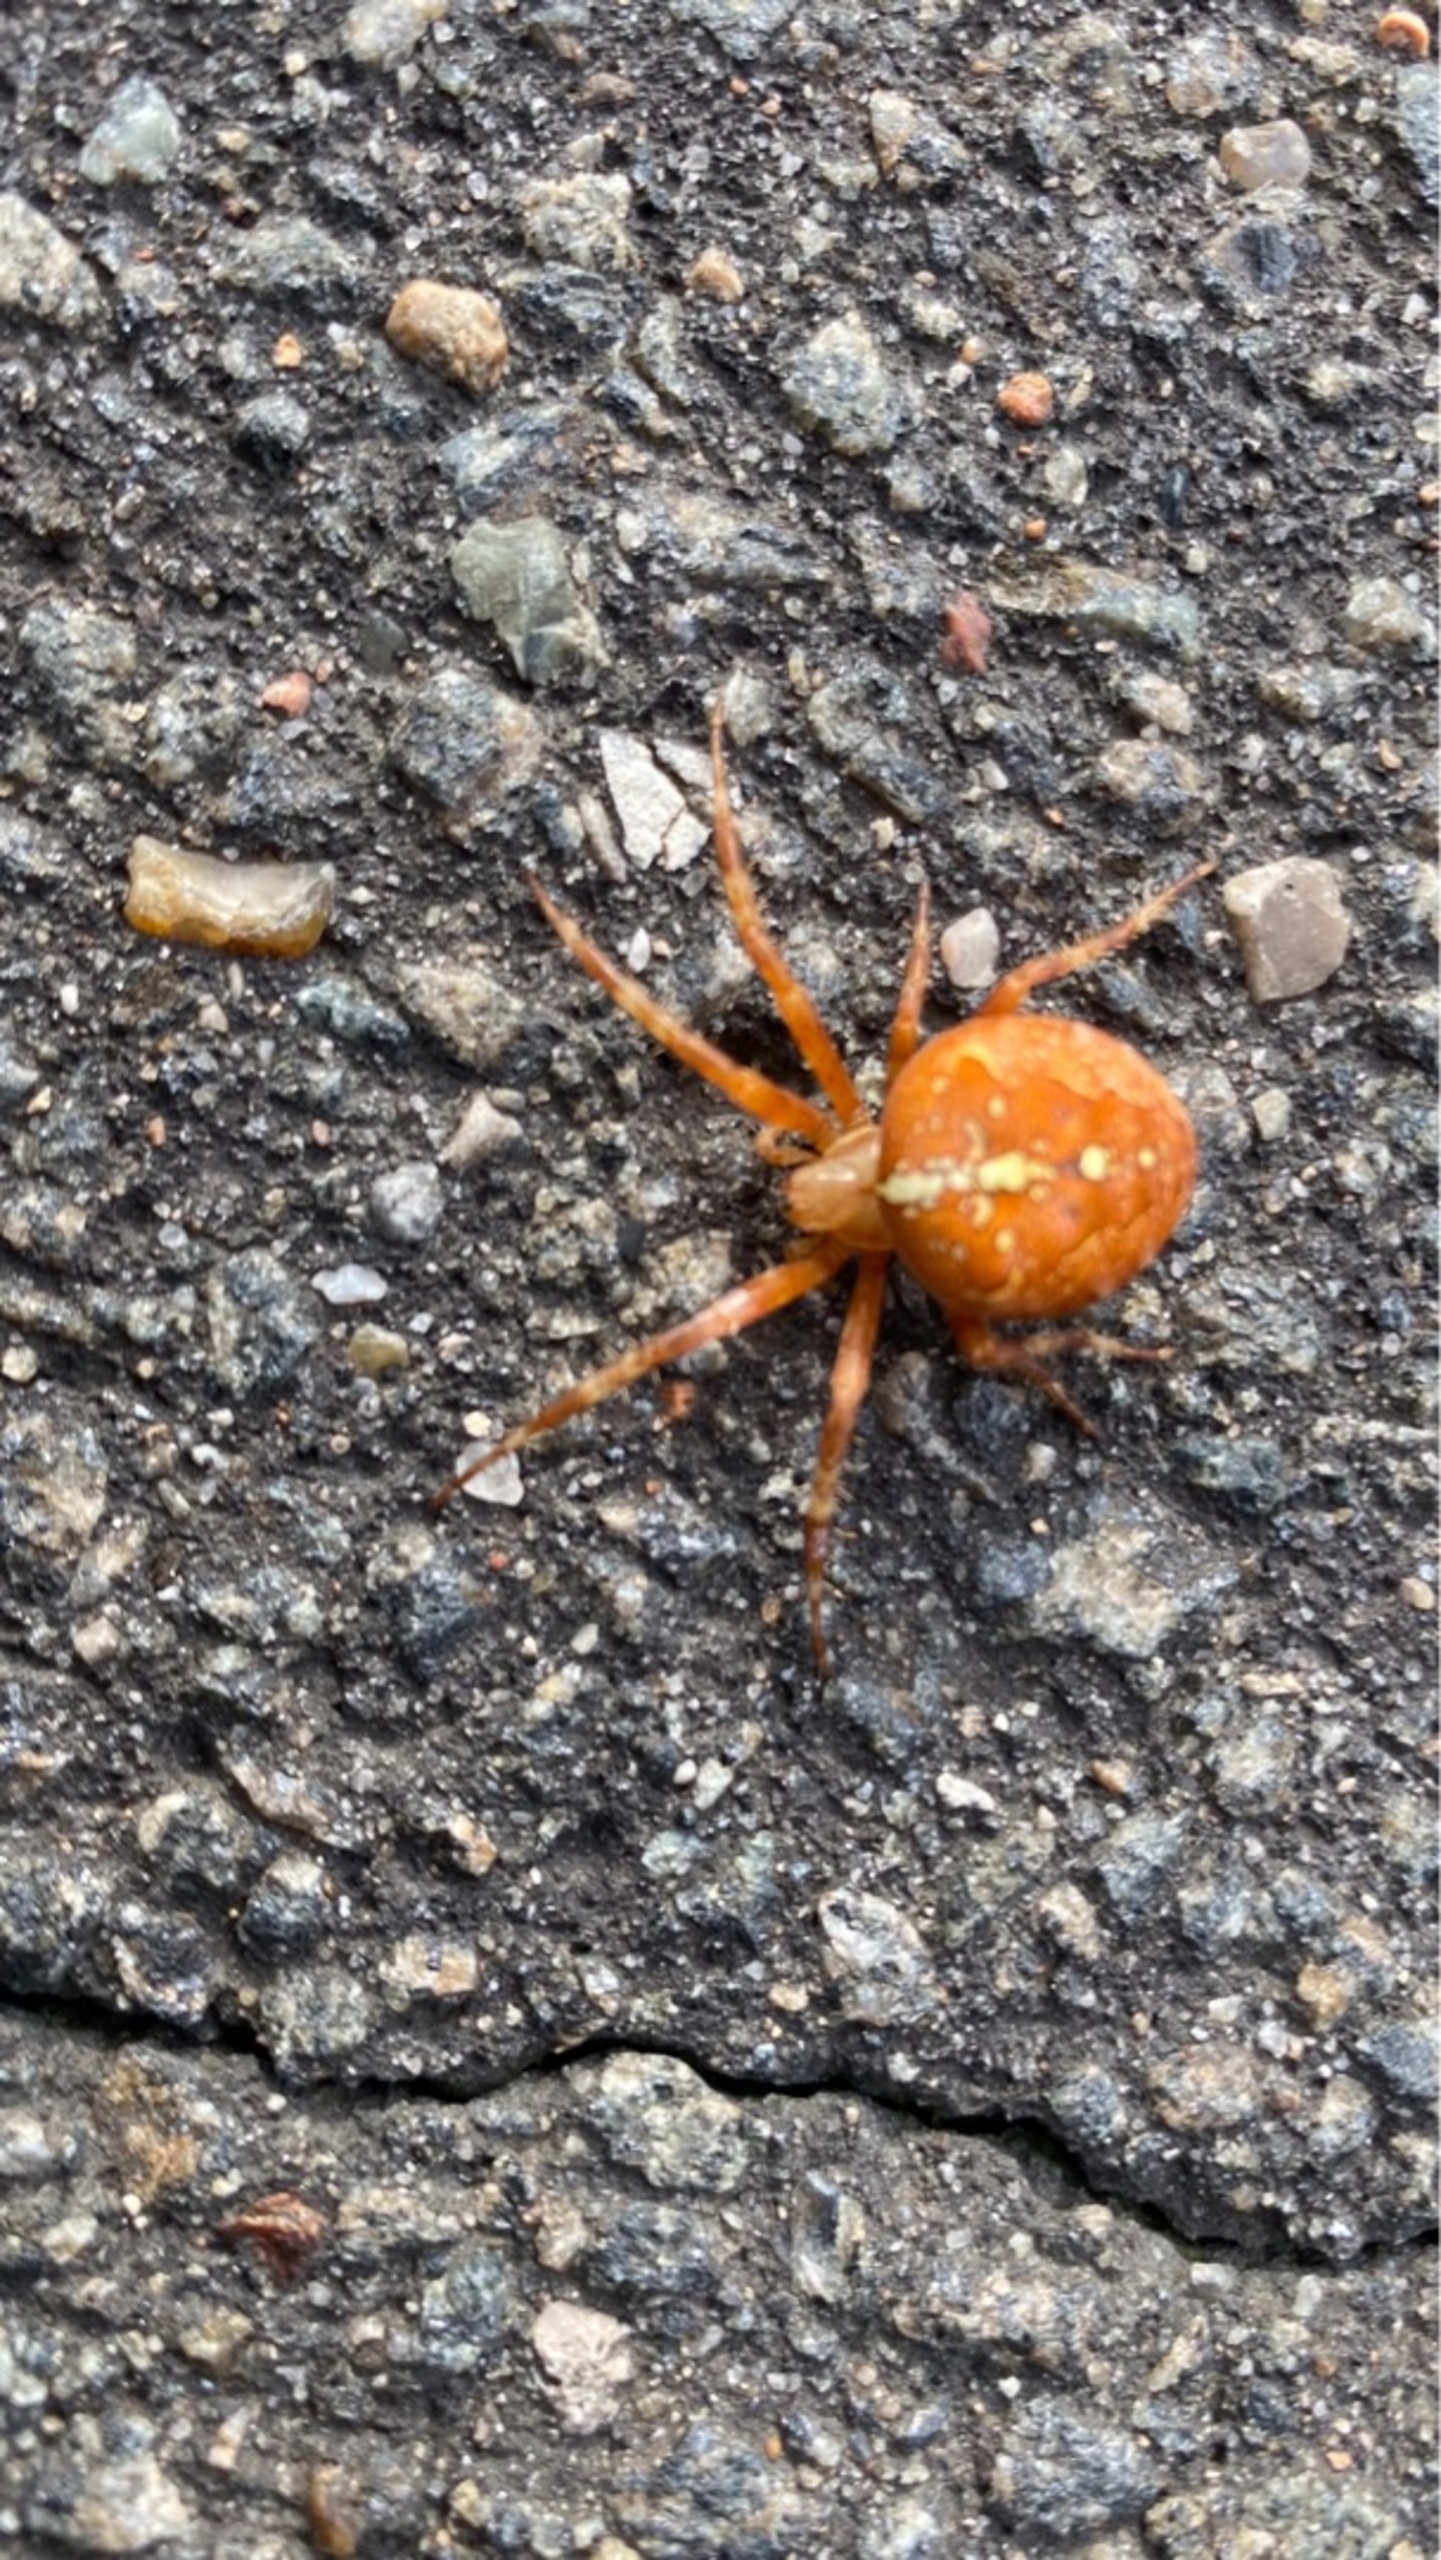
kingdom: Animalia
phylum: Arthropoda
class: Arachnida
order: Araneae
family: Araneidae
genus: Araneus
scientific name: Araneus diadematus
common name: Korsedderkop
